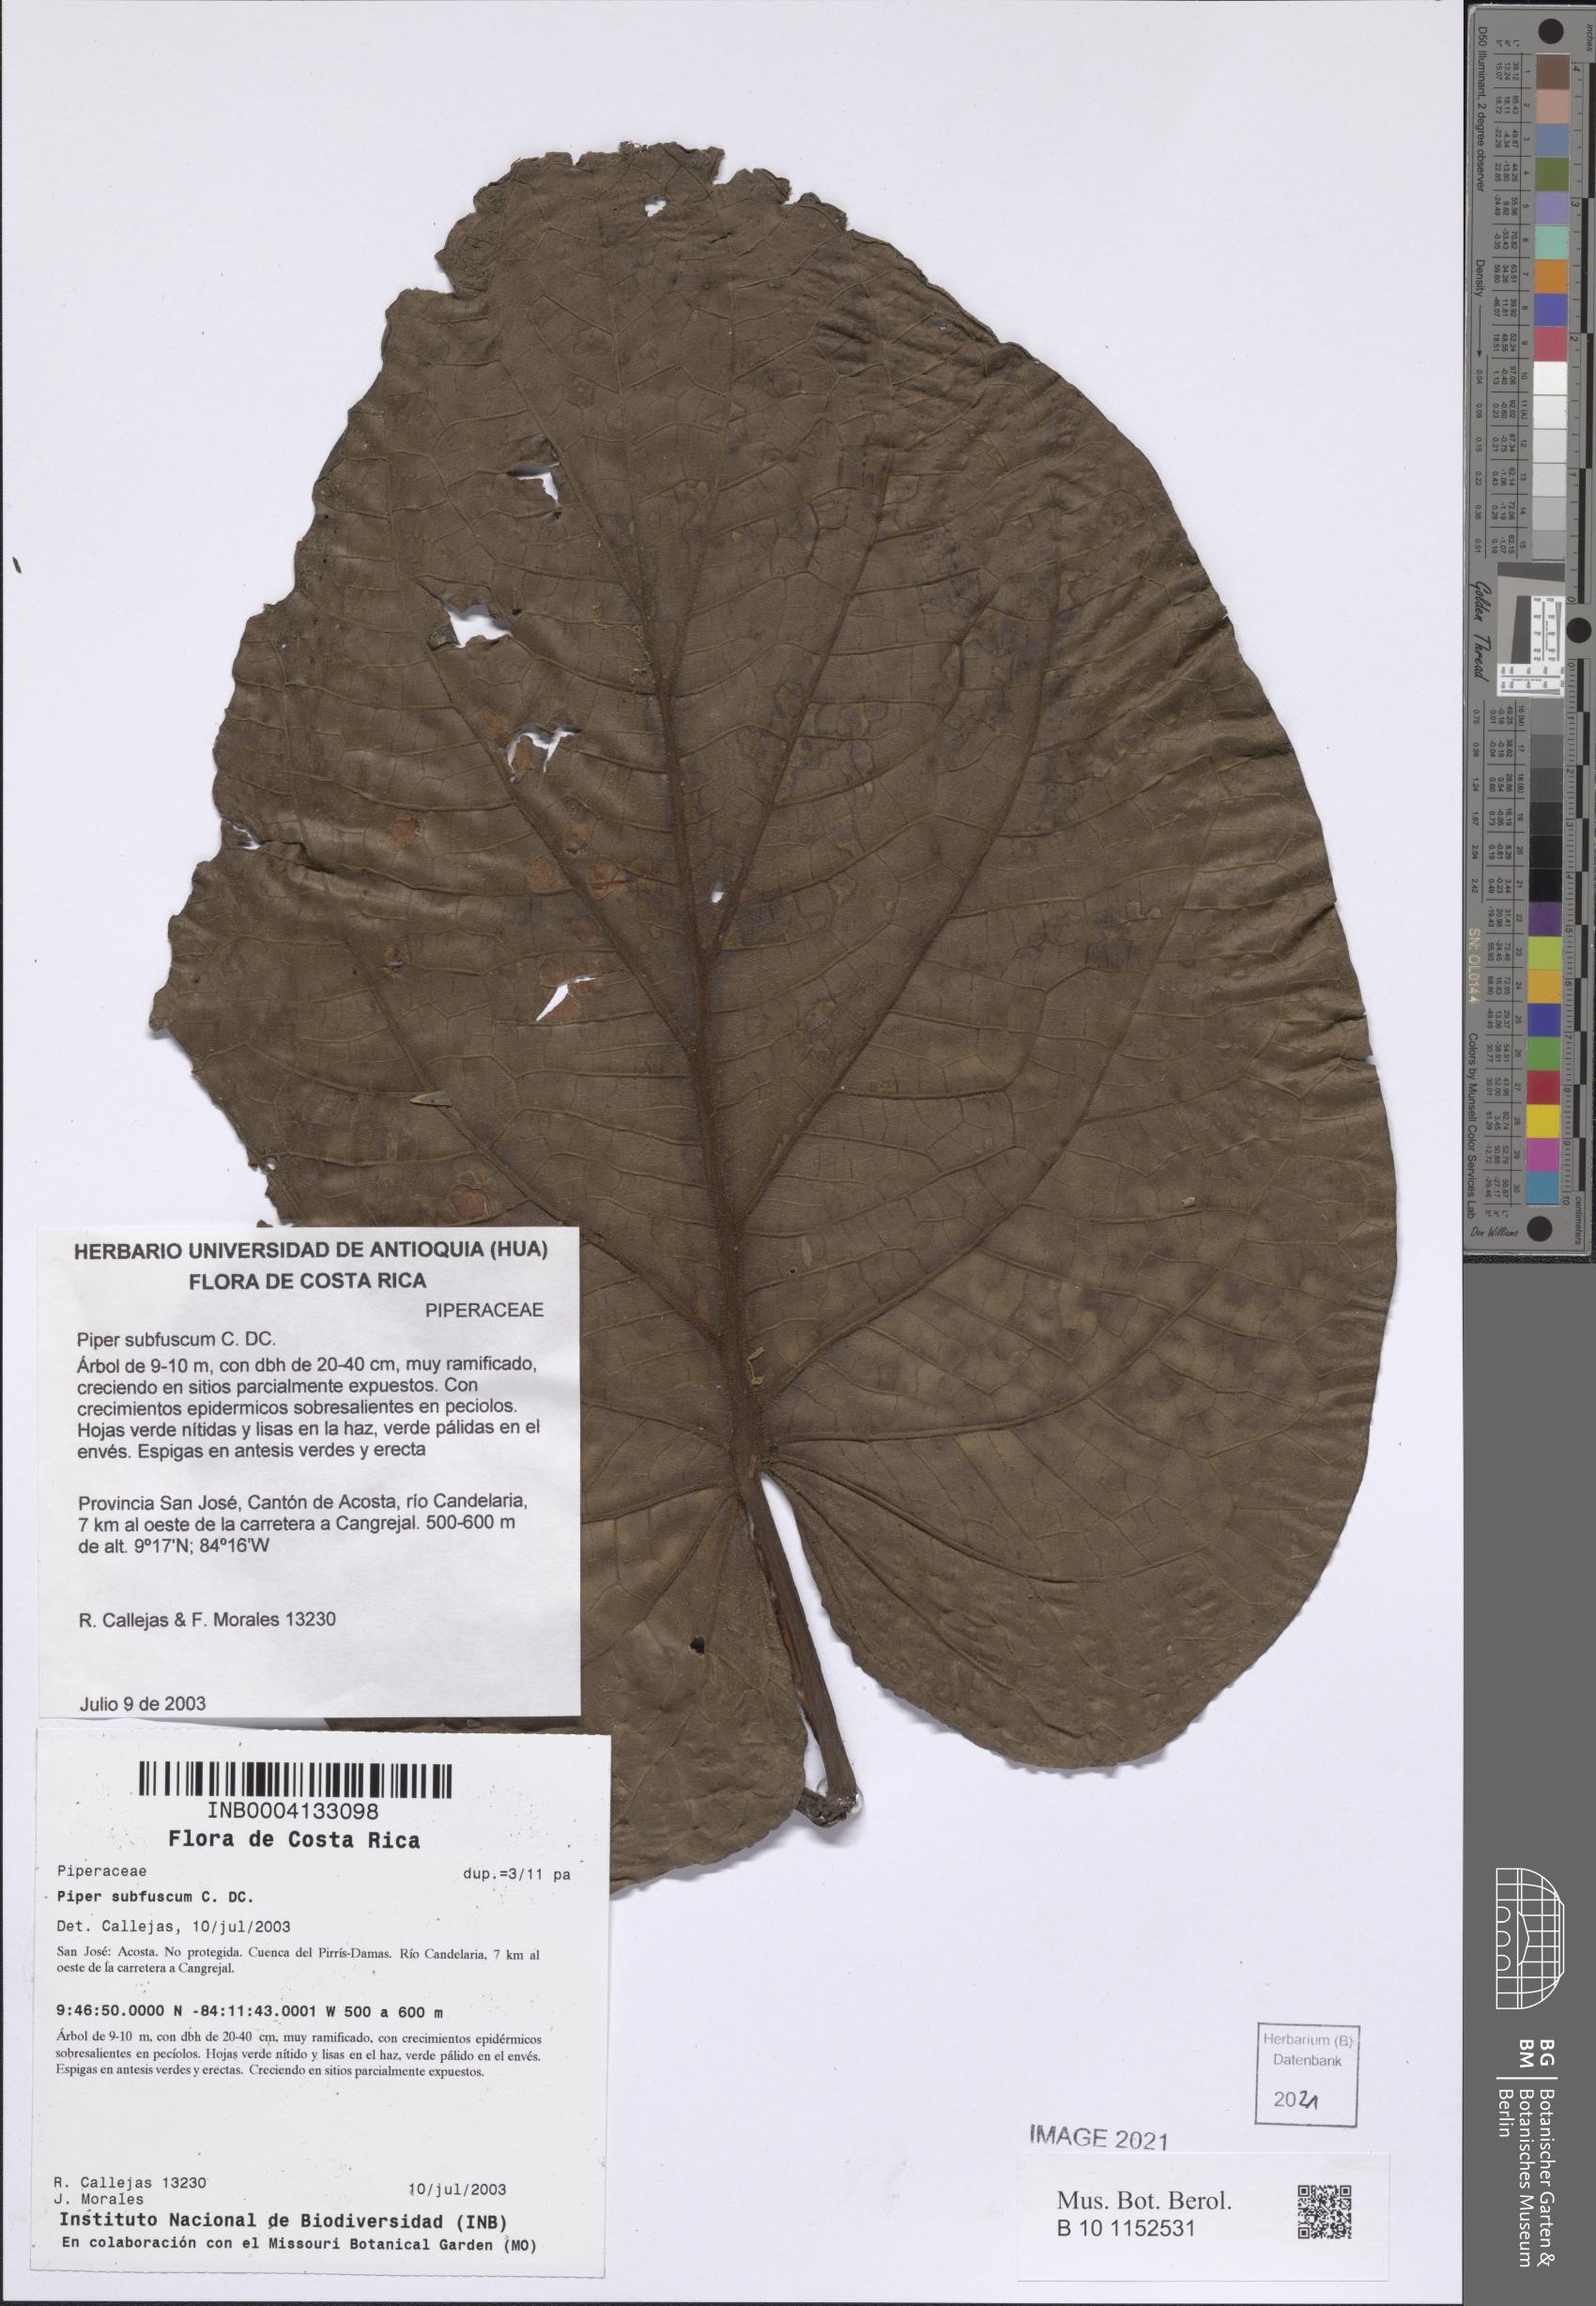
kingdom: Plantae
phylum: Tracheophyta
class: Magnoliopsida
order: Piperales
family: Piperaceae
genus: Piper
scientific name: Piper subfuscum
